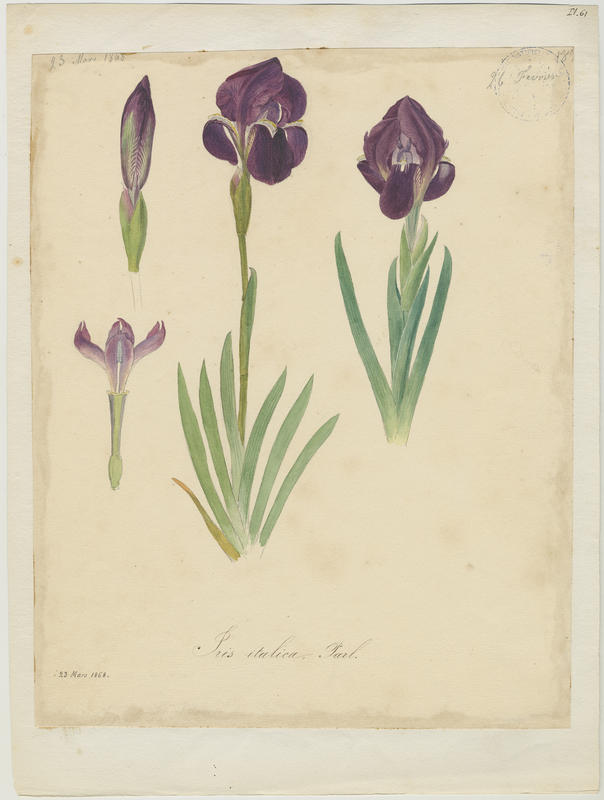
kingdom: Plantae
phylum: Tracheophyta
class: Liliopsida
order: Asparagales
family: Iridaceae
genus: Iris
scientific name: Iris lutescens
